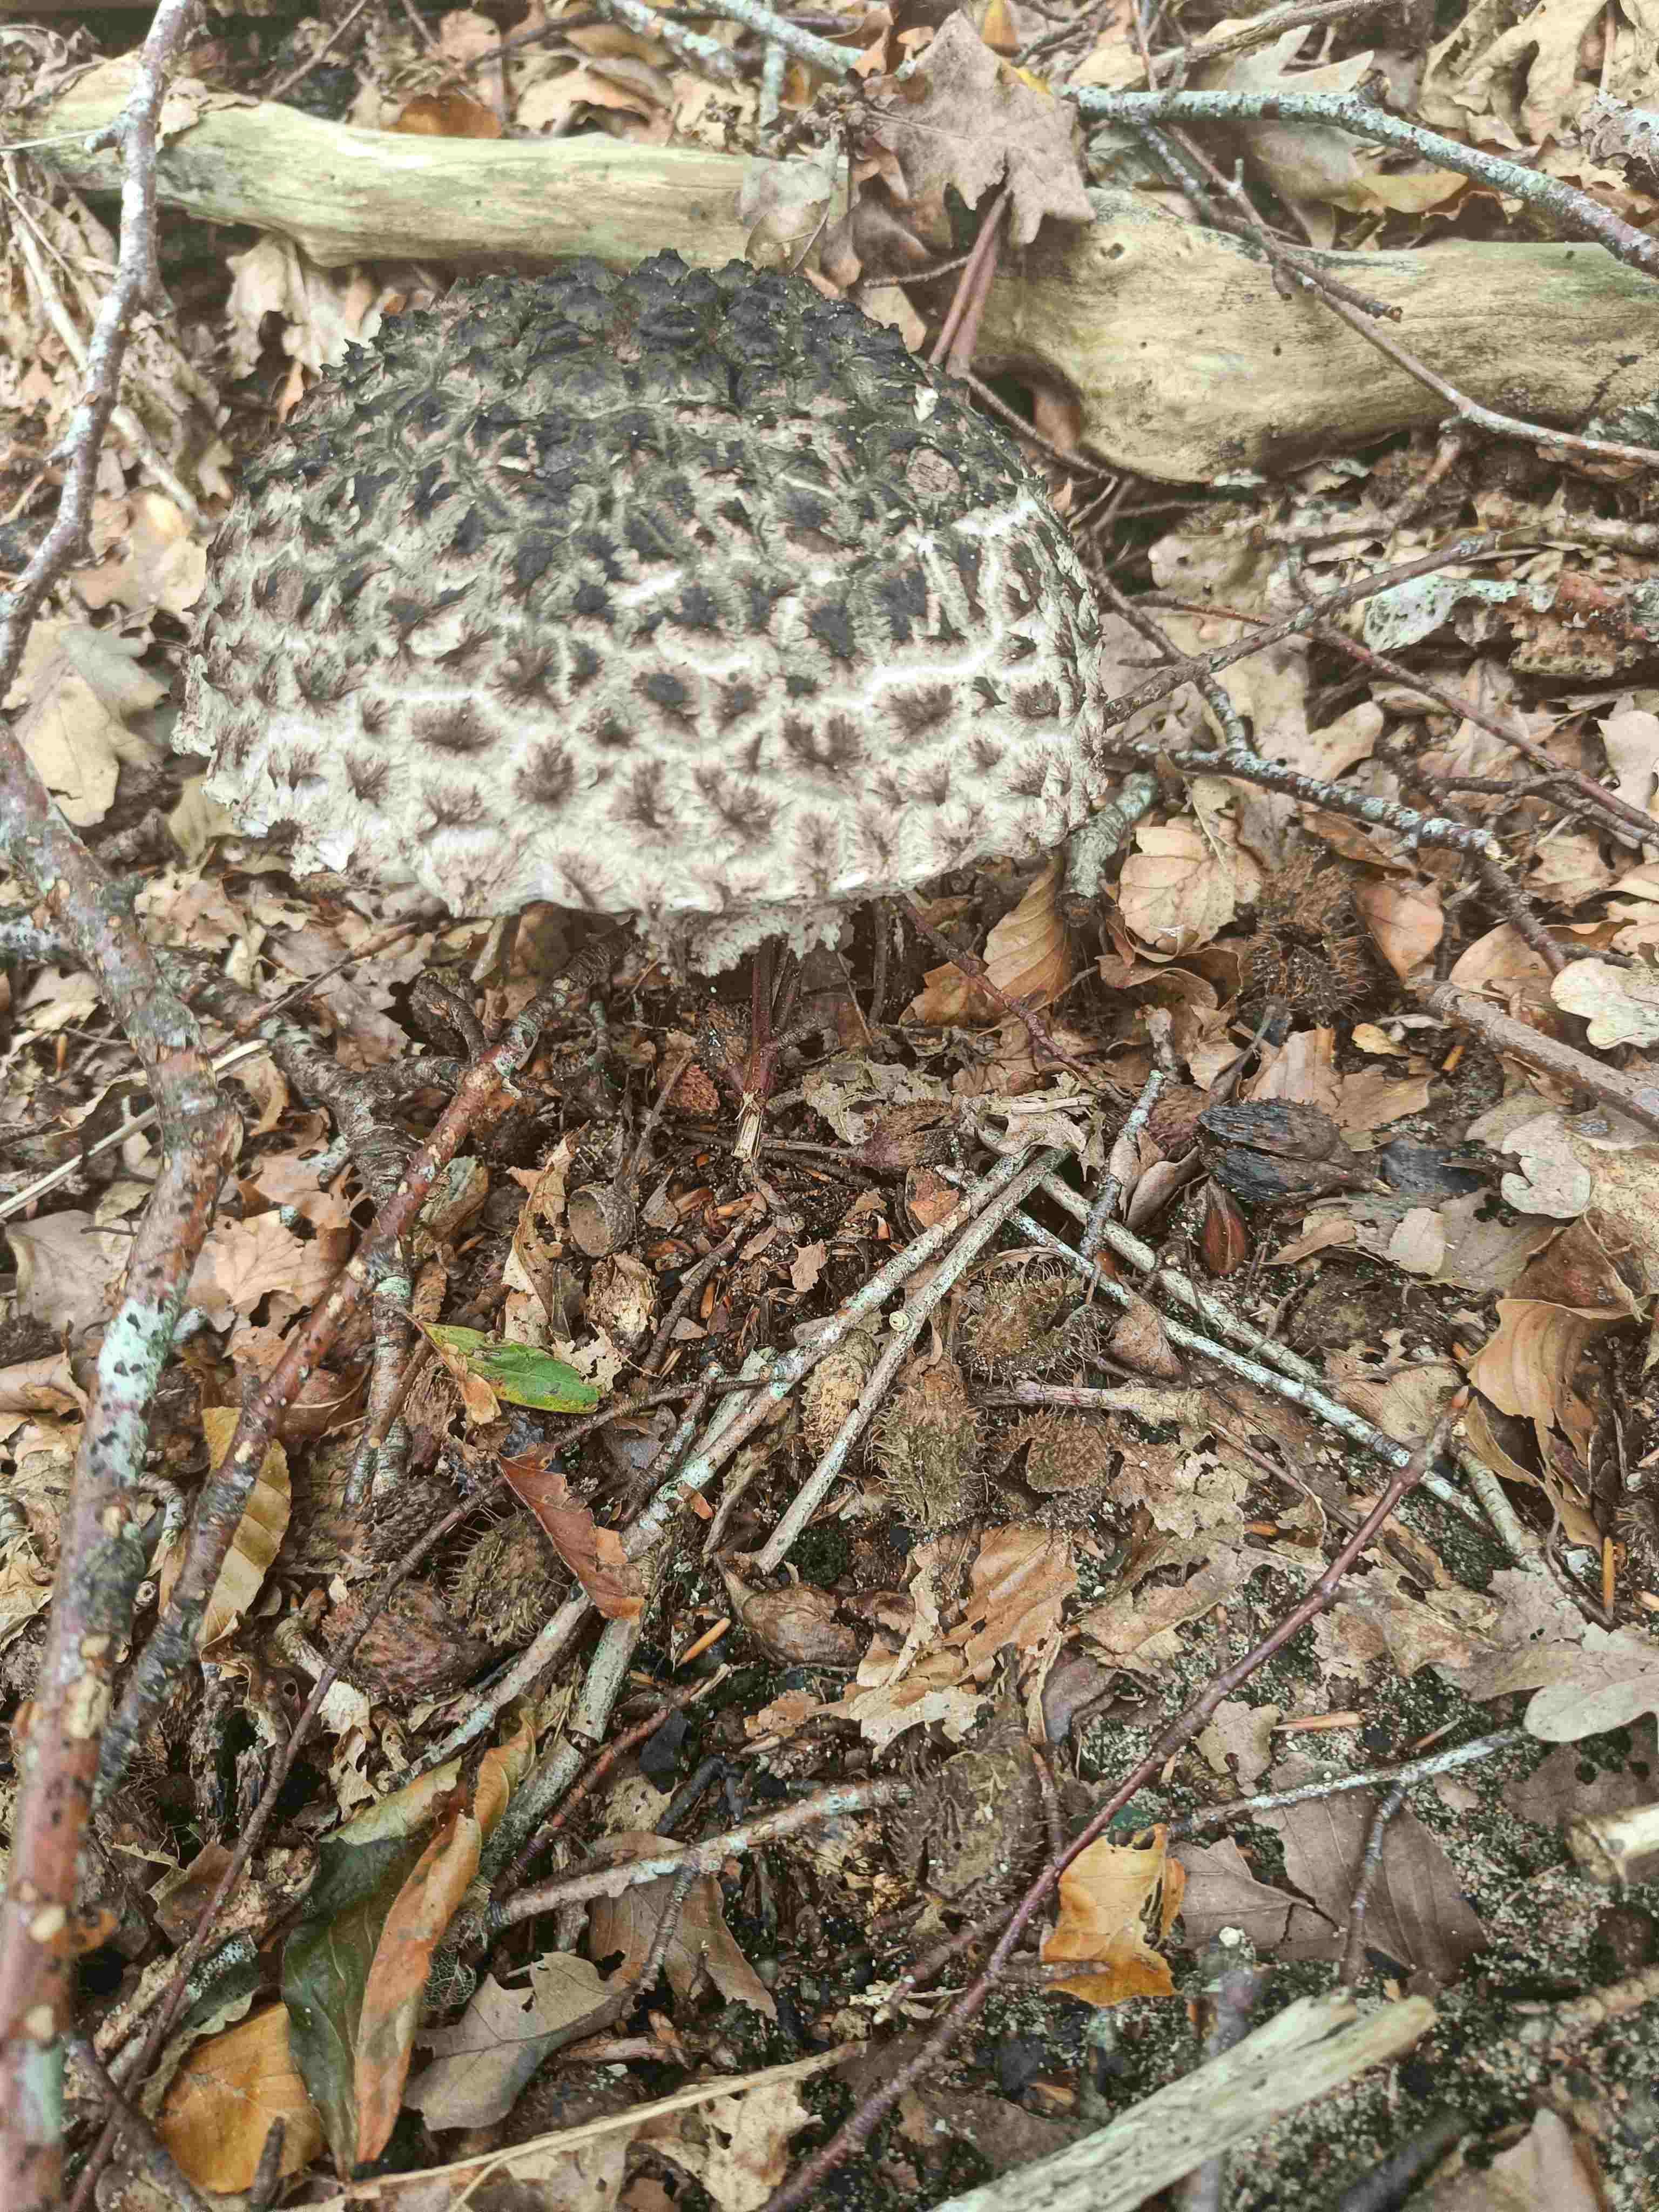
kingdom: Fungi
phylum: Basidiomycota
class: Agaricomycetes
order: Boletales
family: Boletaceae
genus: Strobilomyces
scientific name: Strobilomyces strobilaceus
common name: koglerørhat
